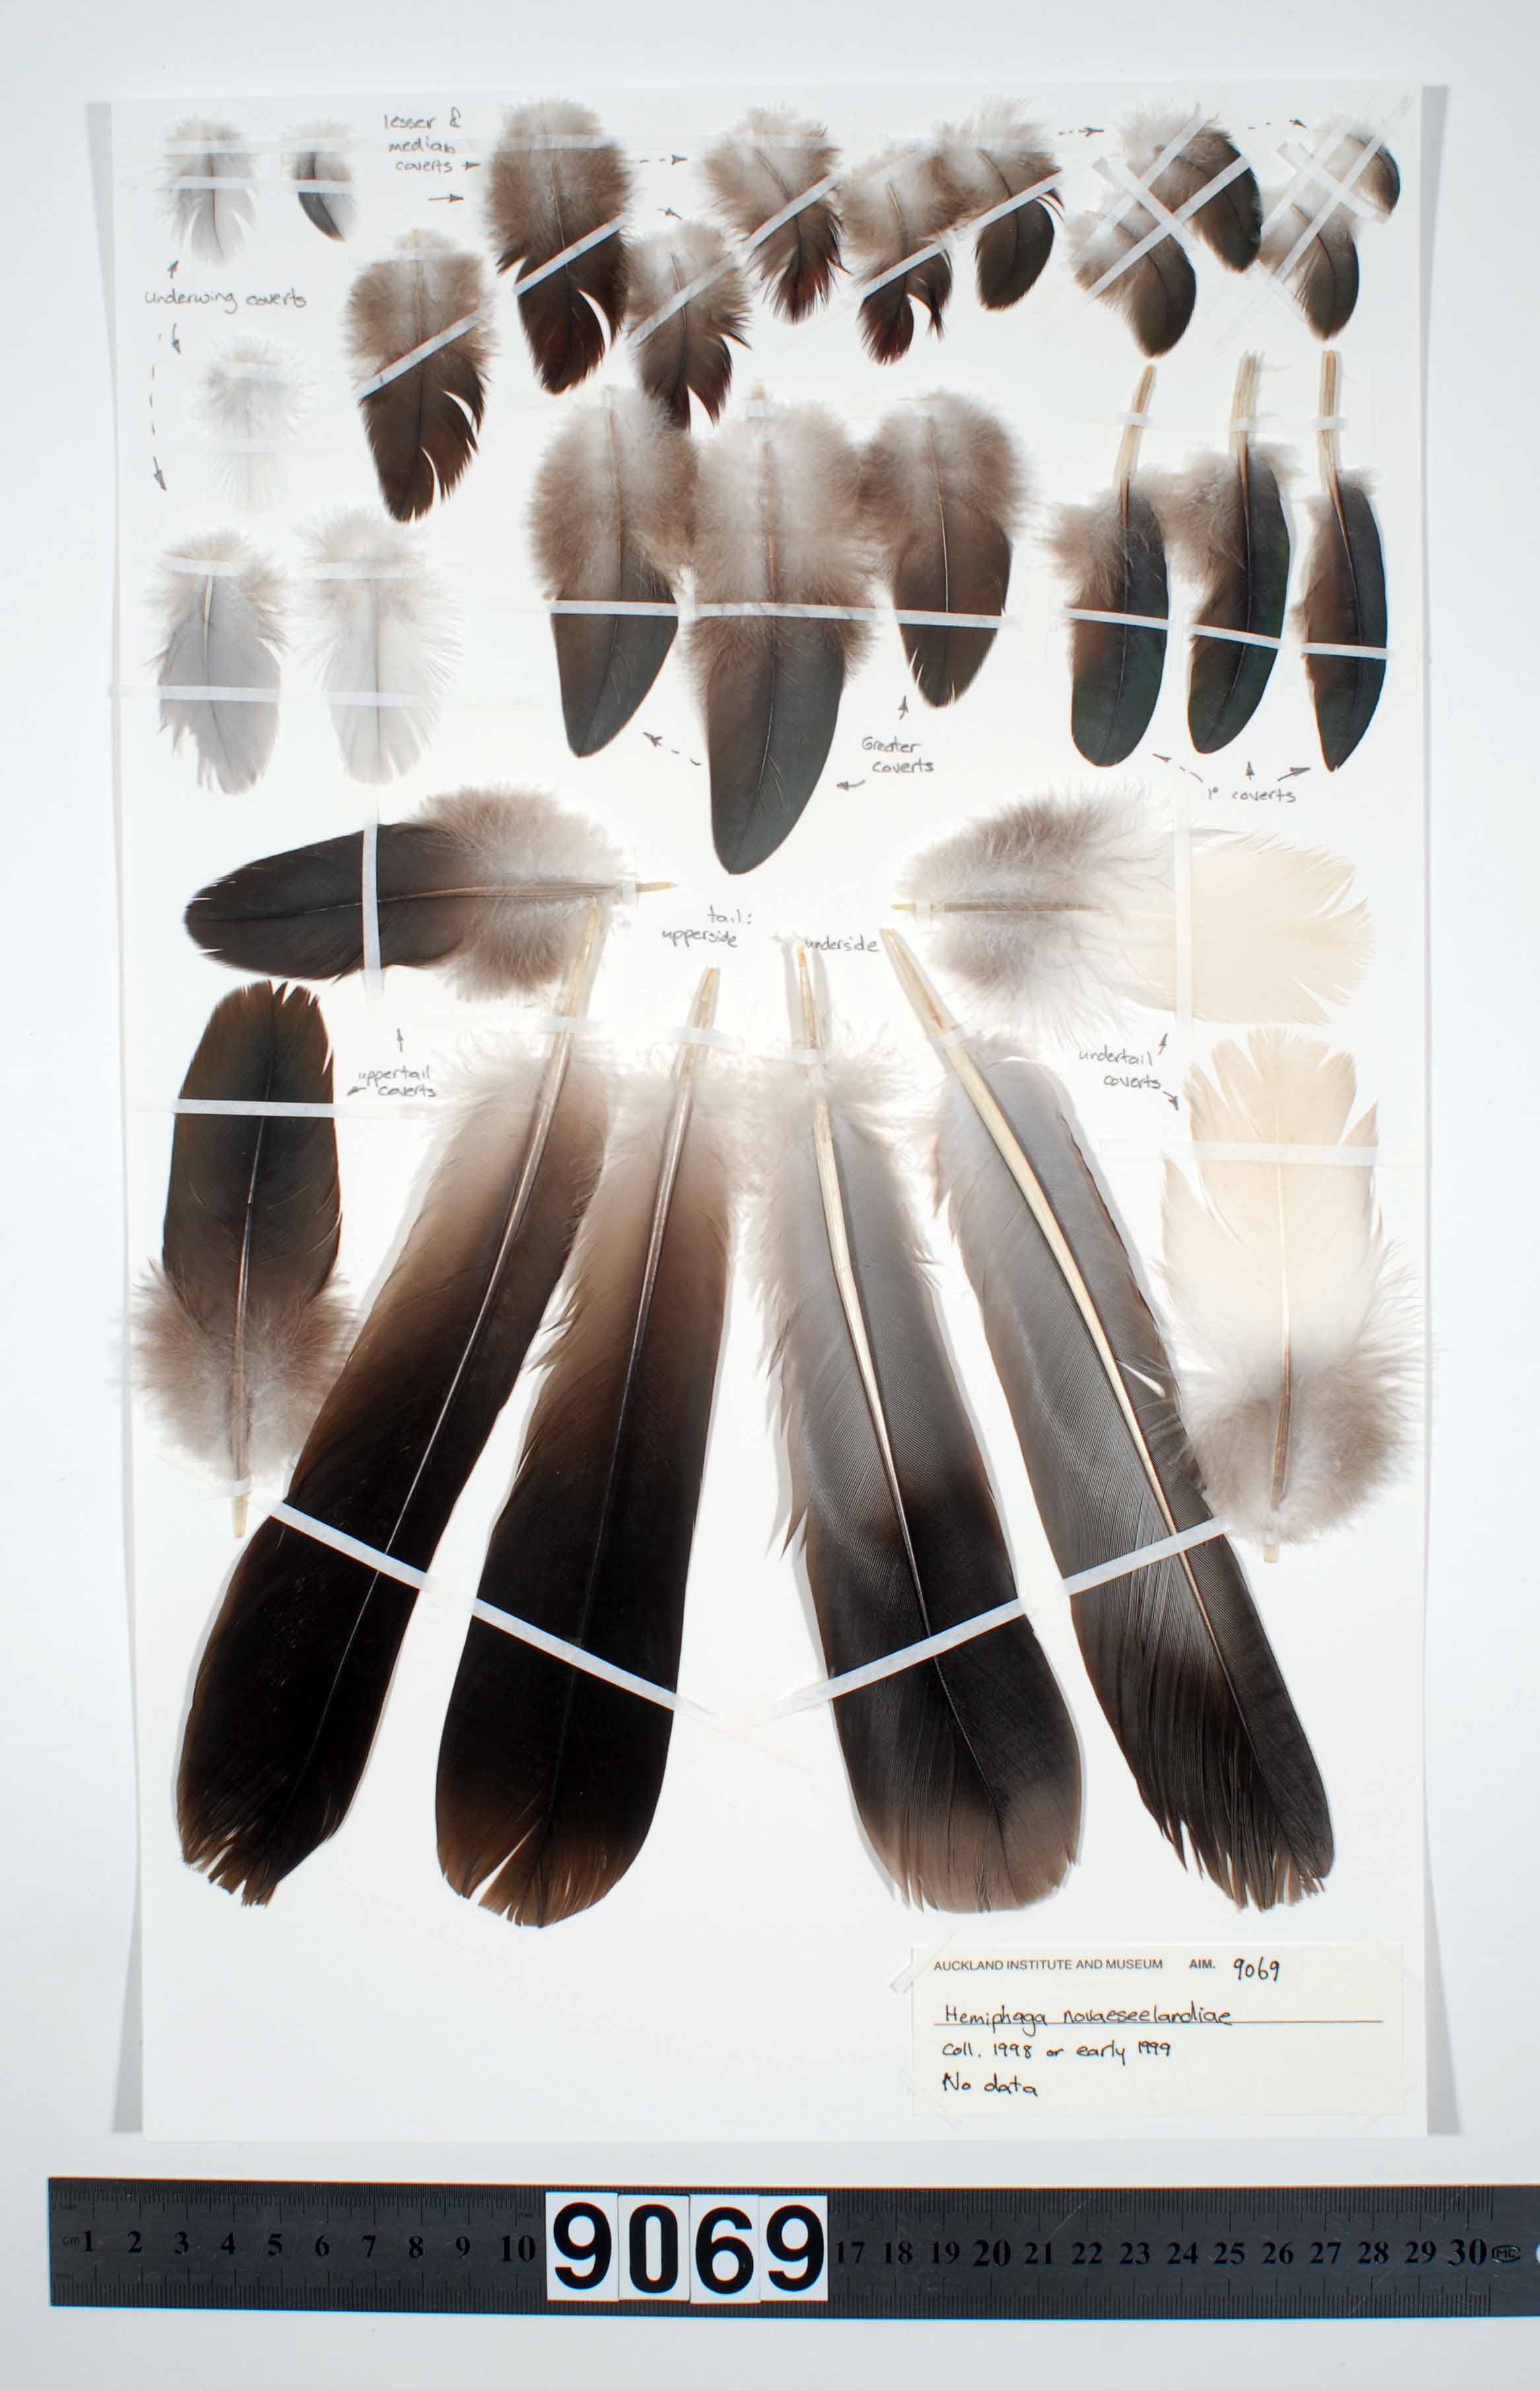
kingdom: Animalia
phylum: Chordata
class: Aves
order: Columbiformes
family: Columbidae
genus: Hemiphaga
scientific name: Hemiphaga novaeseelandiae
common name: New zealand pigeon
